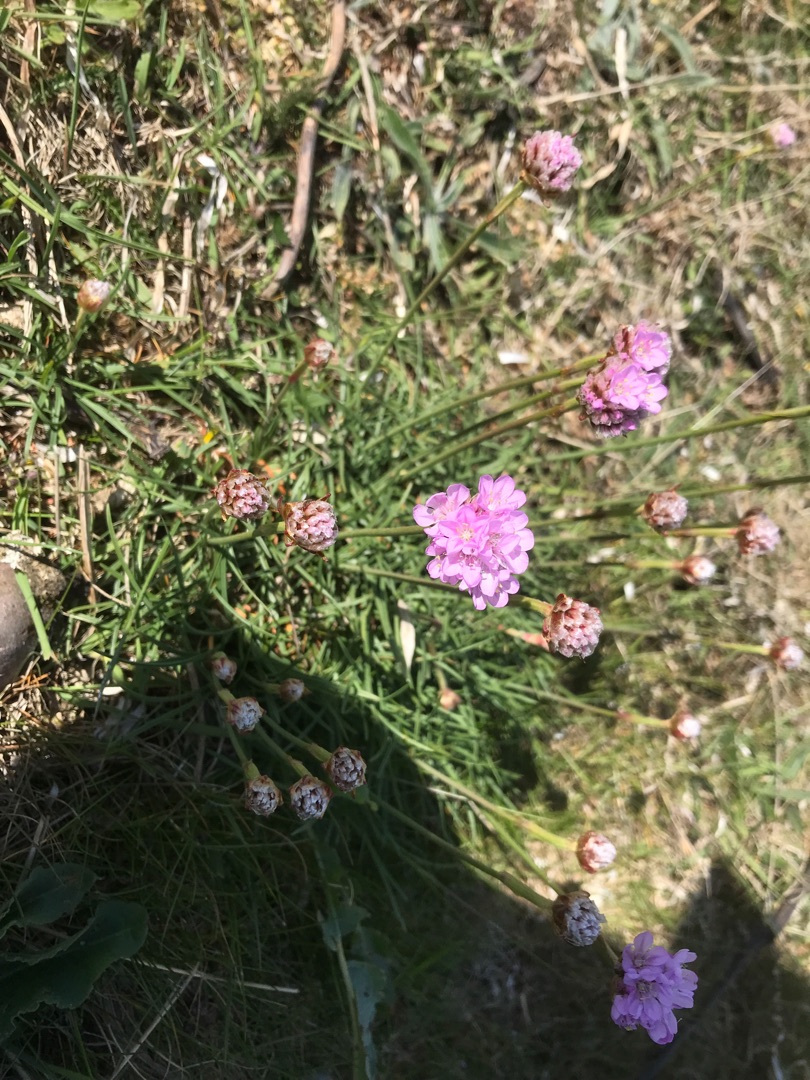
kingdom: Plantae
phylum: Tracheophyta
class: Magnoliopsida
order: Caryophyllales
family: Plumbaginaceae
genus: Armeria
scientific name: Armeria maritima
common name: Engelskgræs
